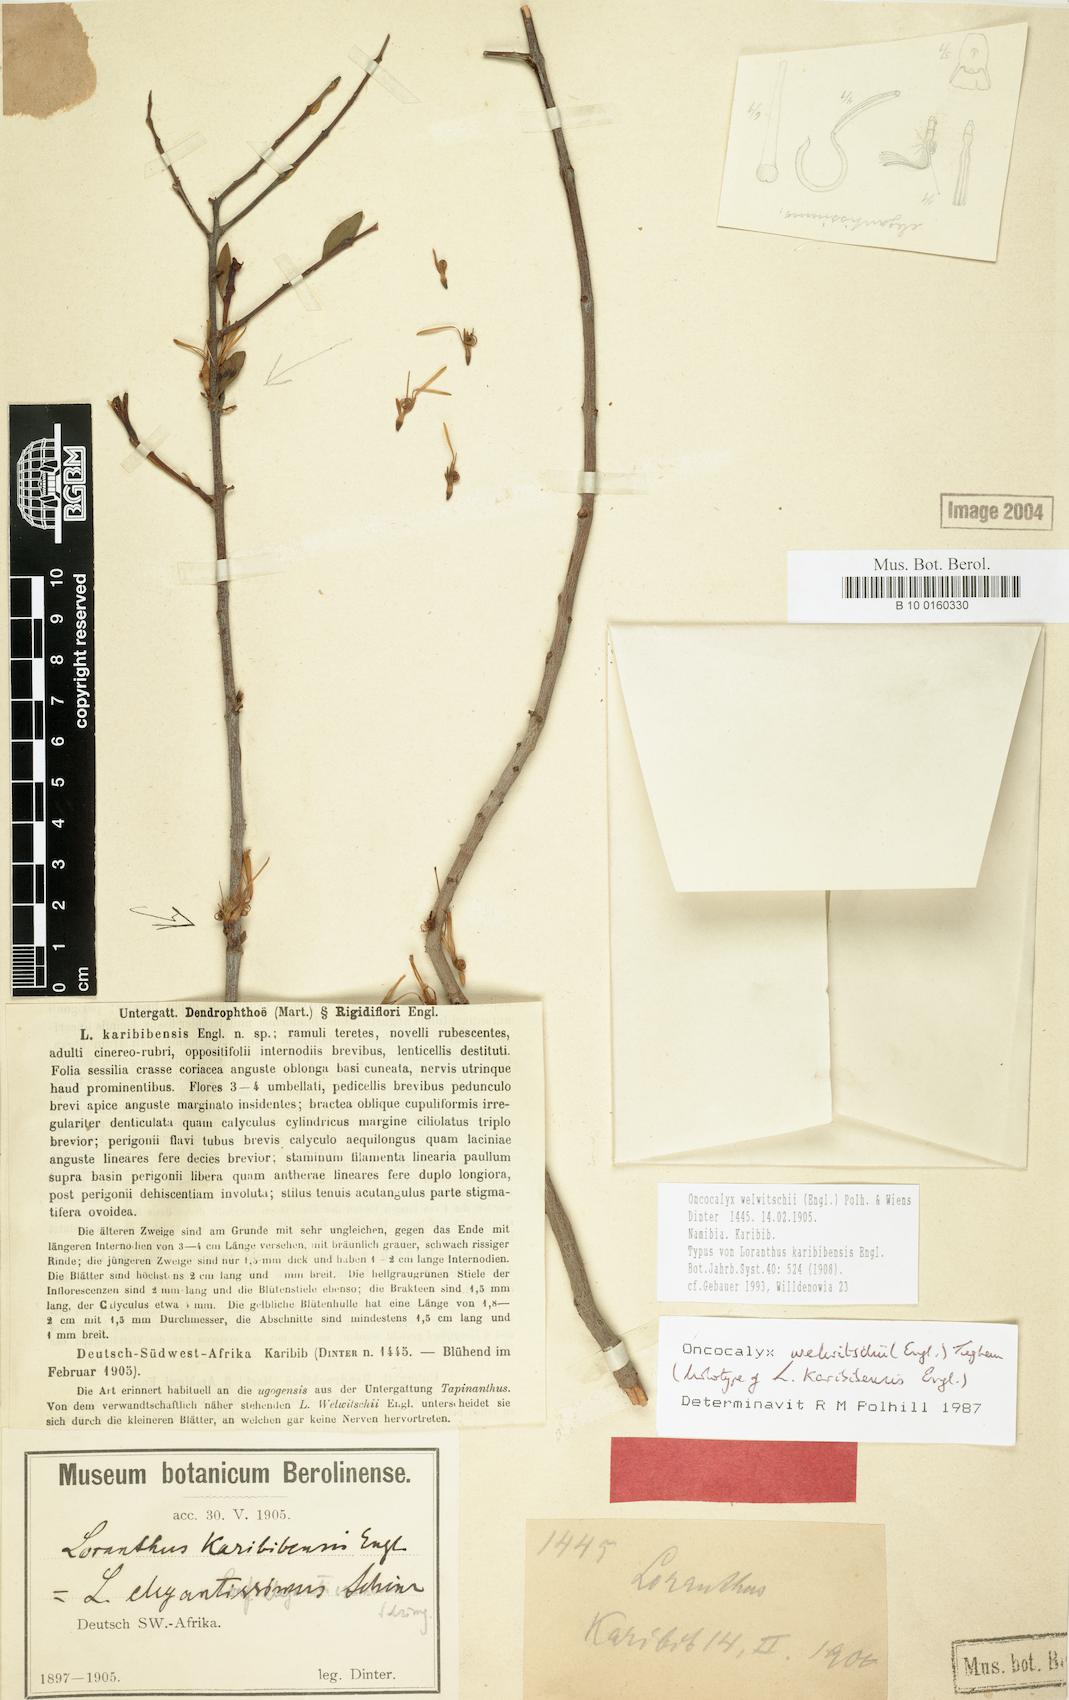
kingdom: Plantae
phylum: Tracheophyta
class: Magnoliopsida
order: Santalales
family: Loranthaceae
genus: Loranthella
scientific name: Loranthella welwitschii
